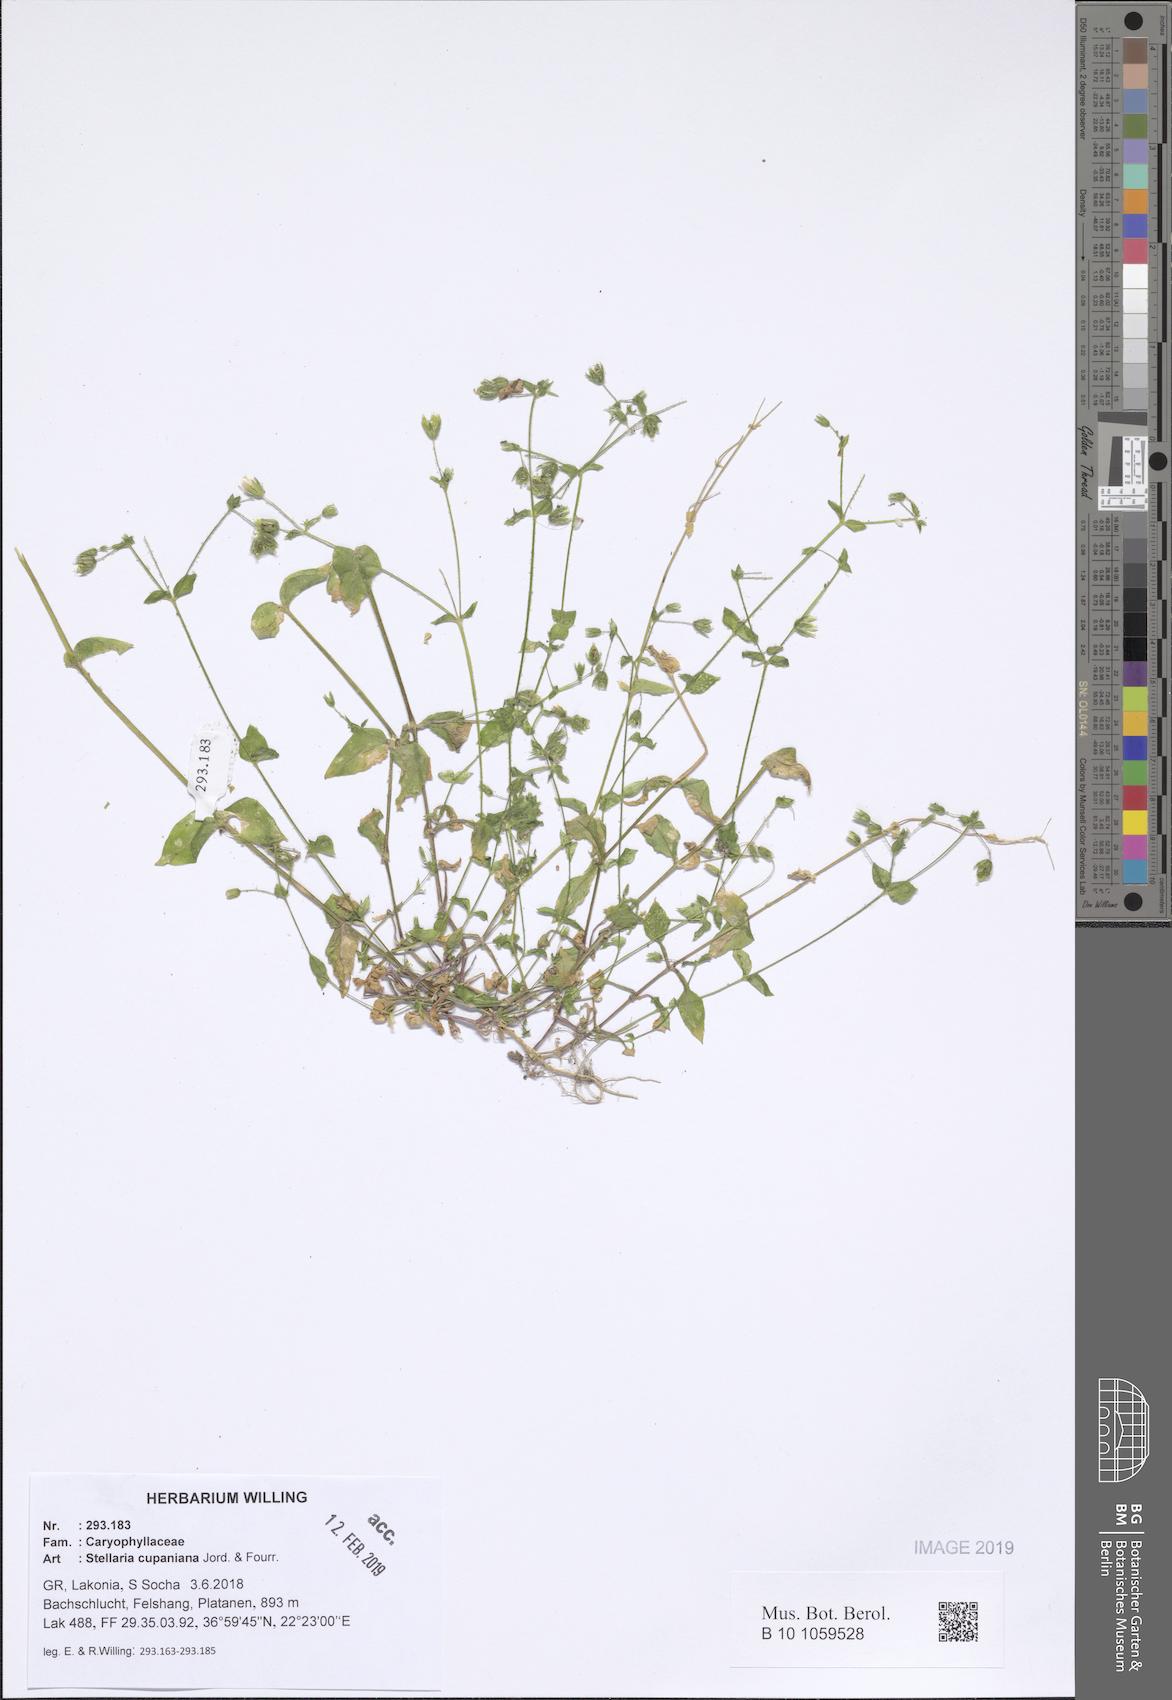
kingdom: Plantae
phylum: Tracheophyta
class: Magnoliopsida
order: Caryophyllales
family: Caryophyllaceae
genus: Stellaria
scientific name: Stellaria cupaniana
